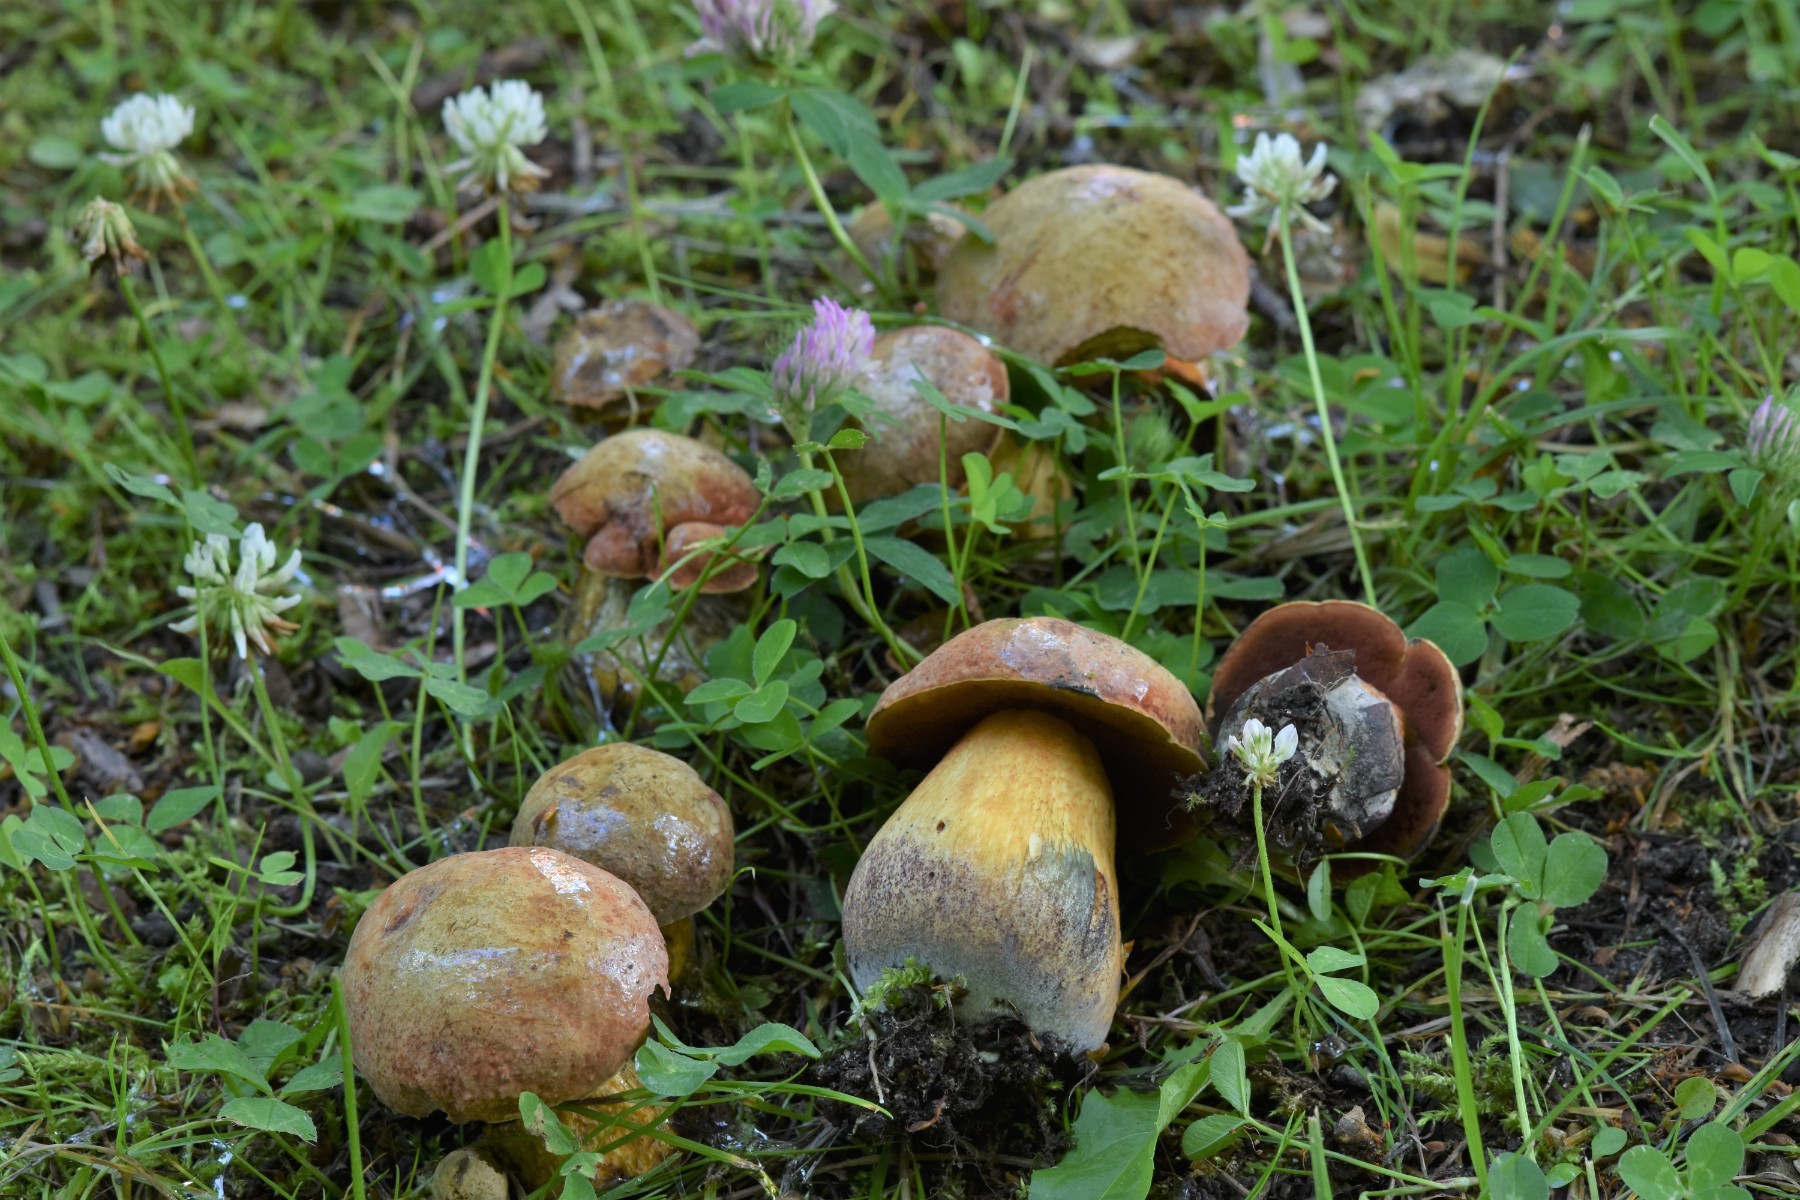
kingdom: Fungi
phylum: Basidiomycota
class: Agaricomycetes
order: Boletales
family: Boletaceae
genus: Suillellus
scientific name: Suillellus luridus
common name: netstokket indigorørhat
